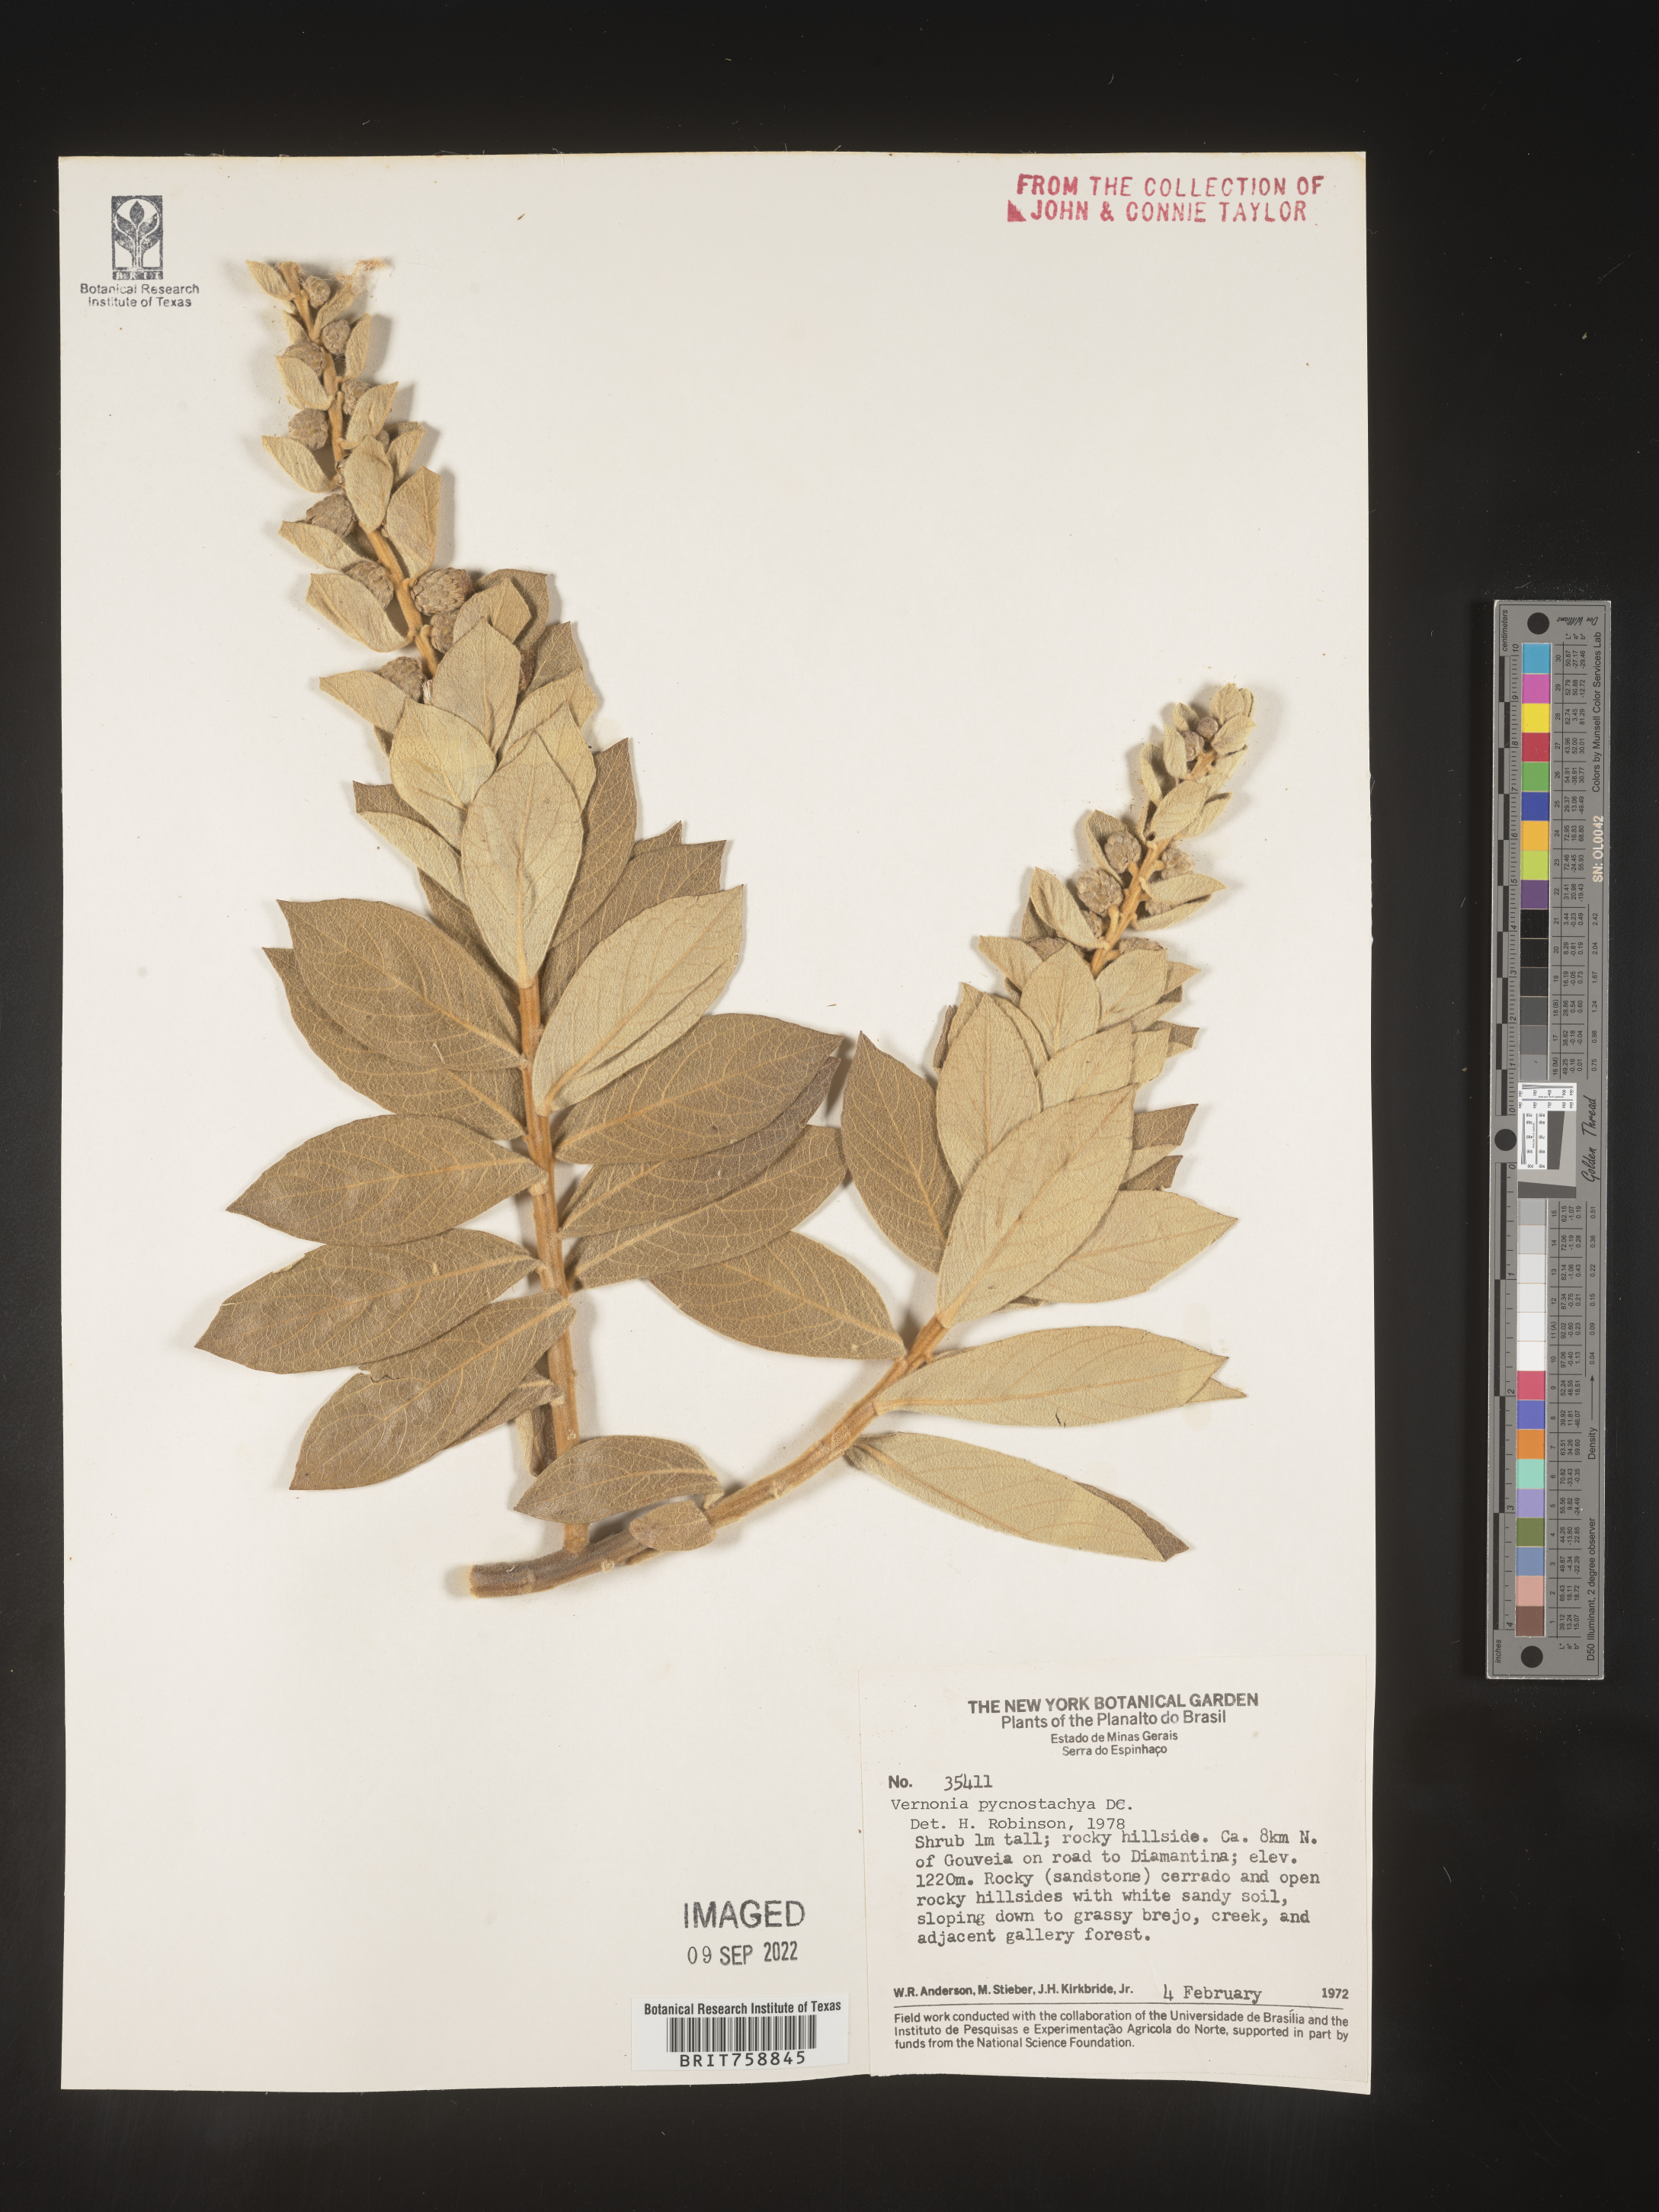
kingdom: Plantae
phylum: Tracheophyta
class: Magnoliopsida
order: Asterales
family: Asteraceae
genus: Vernonia
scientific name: Vernonia
